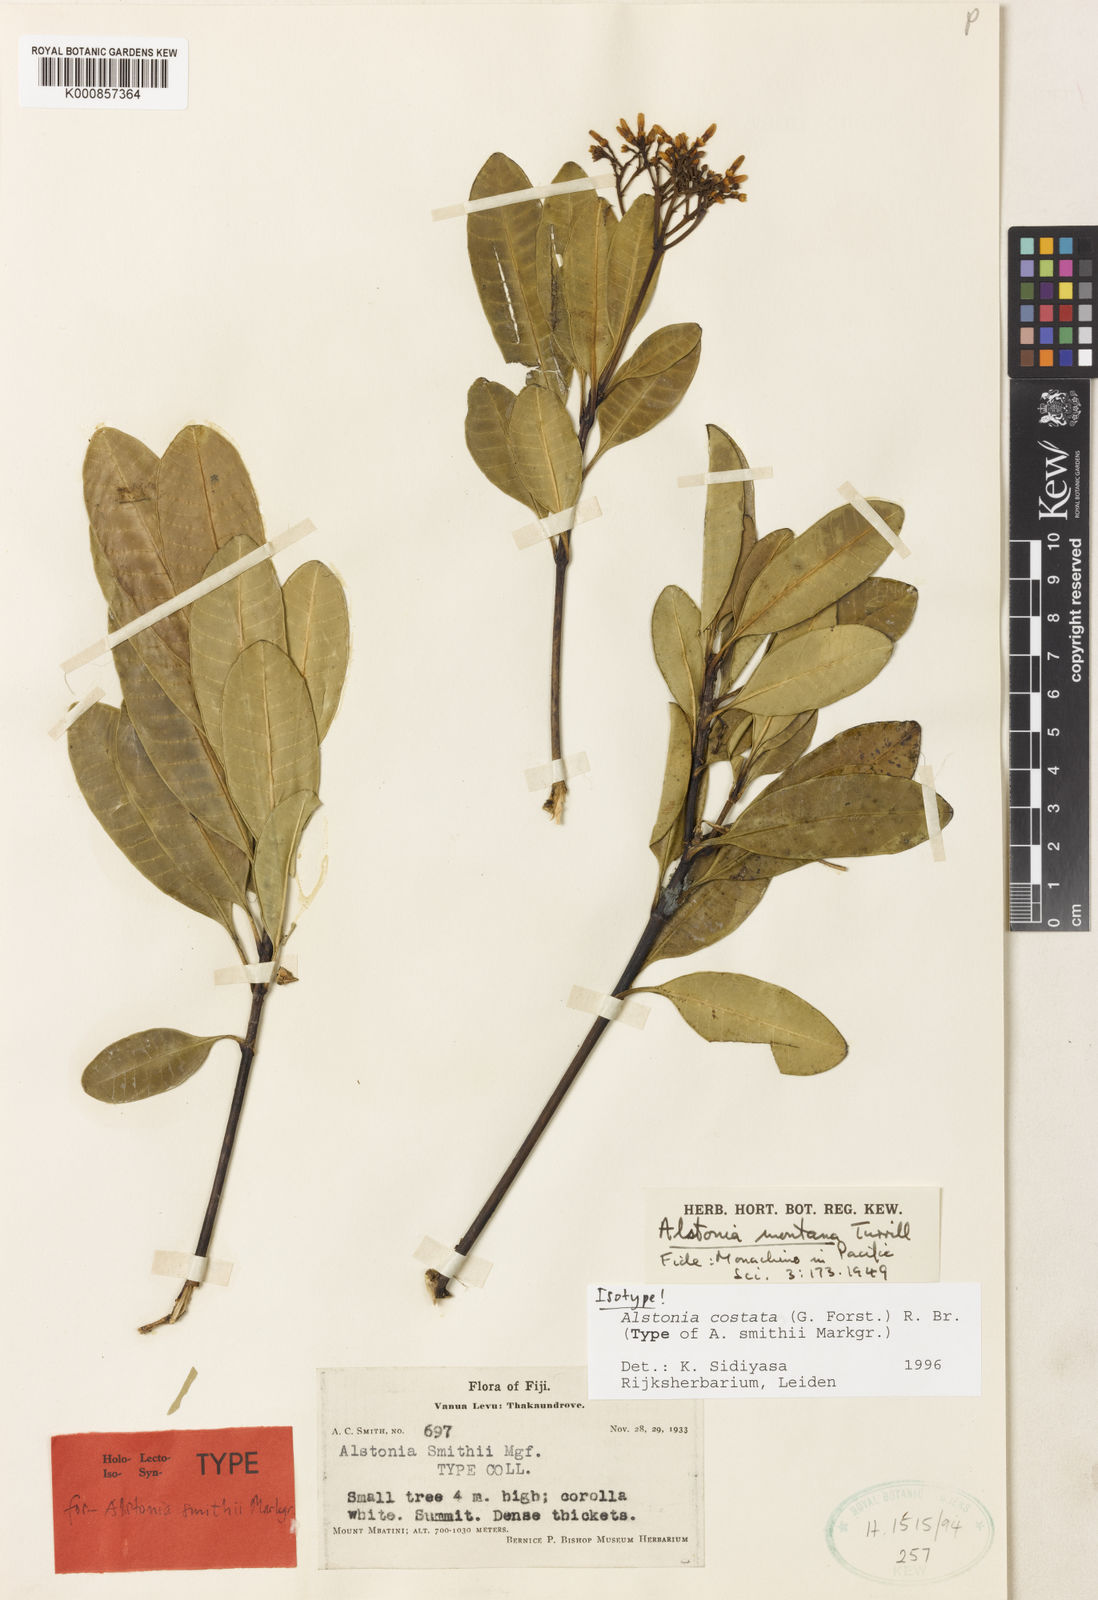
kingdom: Plantae
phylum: Tracheophyta
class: Magnoliopsida
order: Gentianales
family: Apocynaceae
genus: Alstonia
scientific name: Alstonia costata
